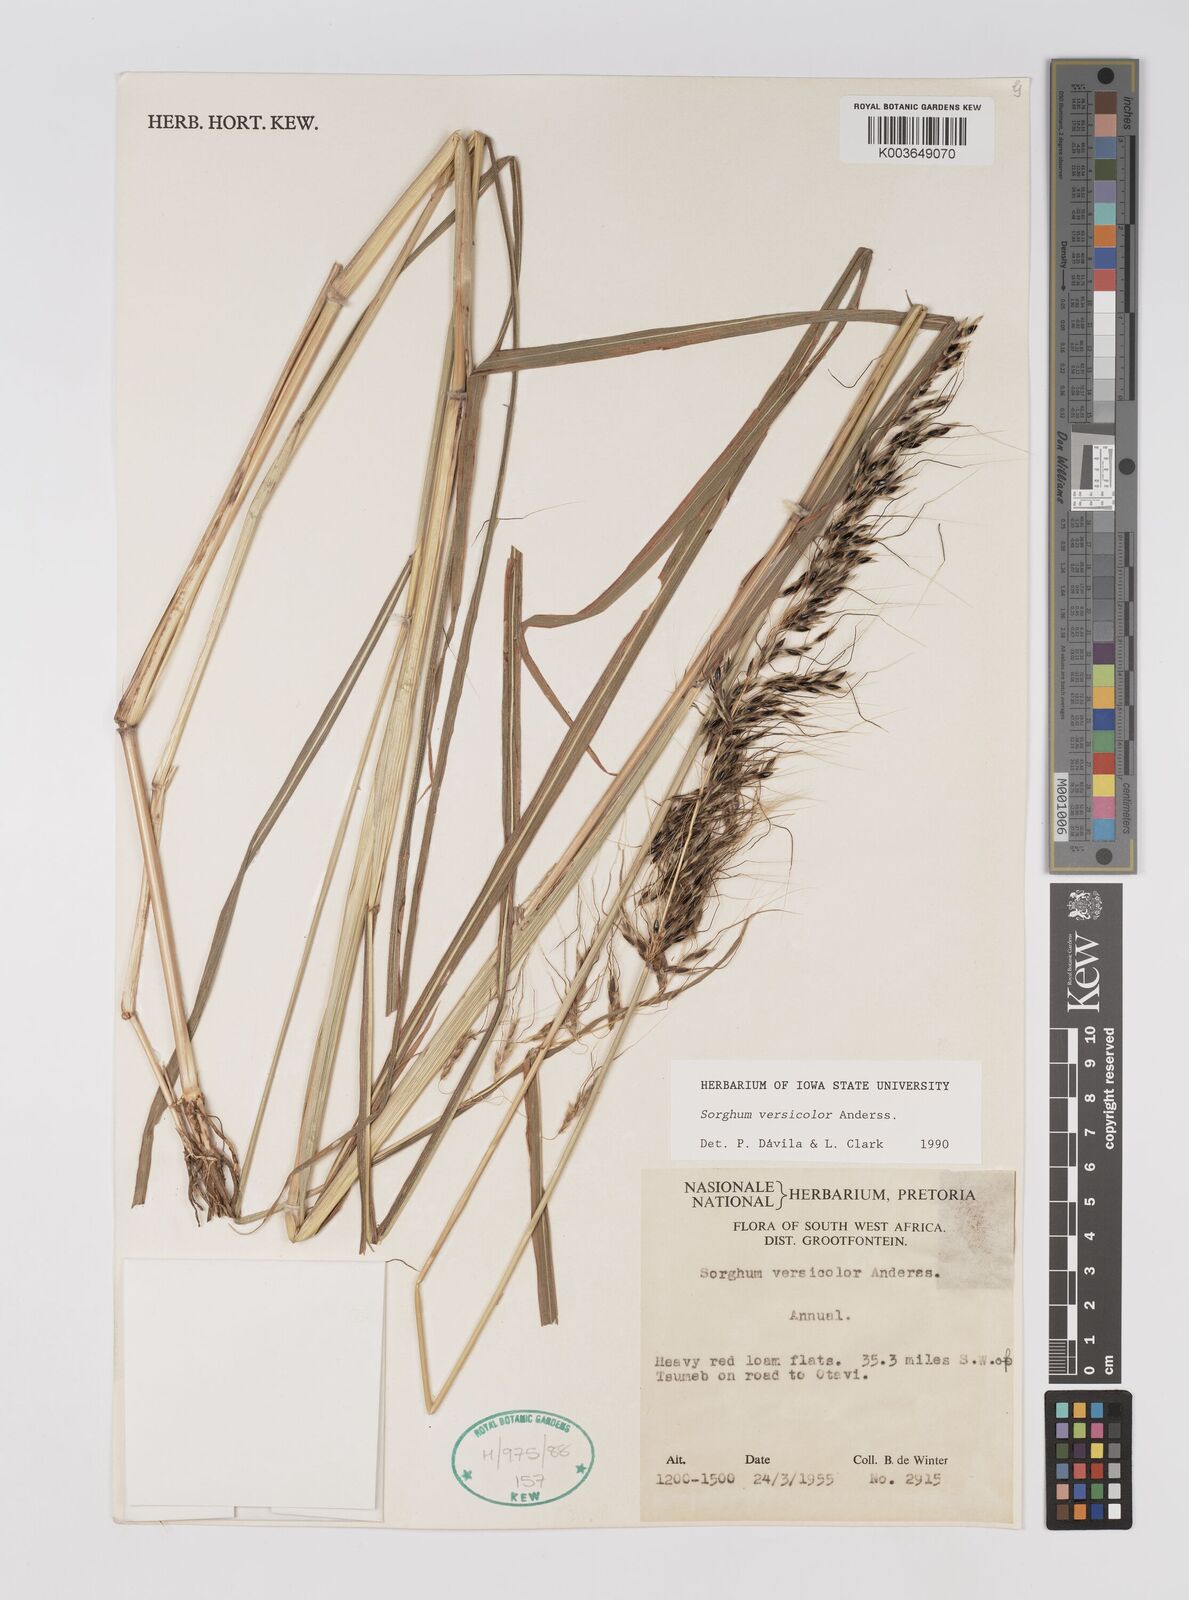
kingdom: Plantae
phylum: Tracheophyta
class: Liliopsida
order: Poales
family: Poaceae
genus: Sarga
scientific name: Sarga versicolor
